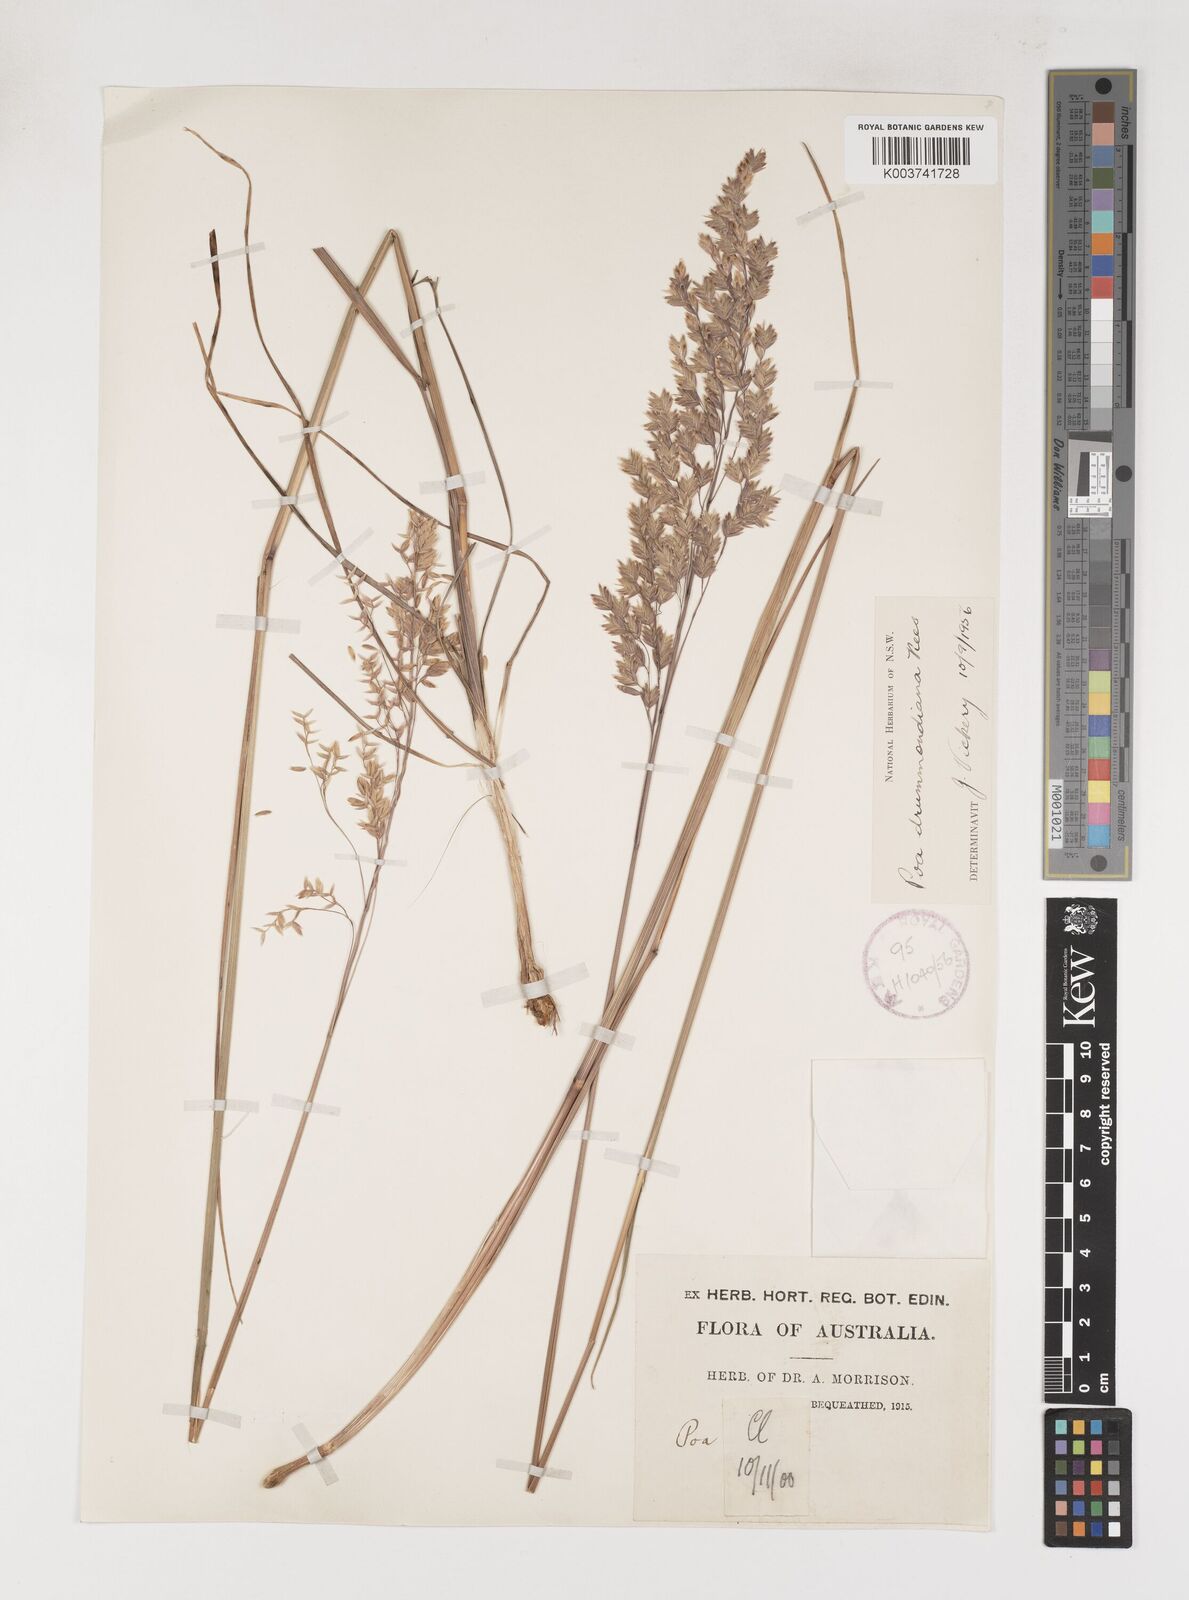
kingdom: Plantae
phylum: Tracheophyta
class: Liliopsida
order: Poales
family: Poaceae
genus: Poa
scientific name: Poa drummondiana
